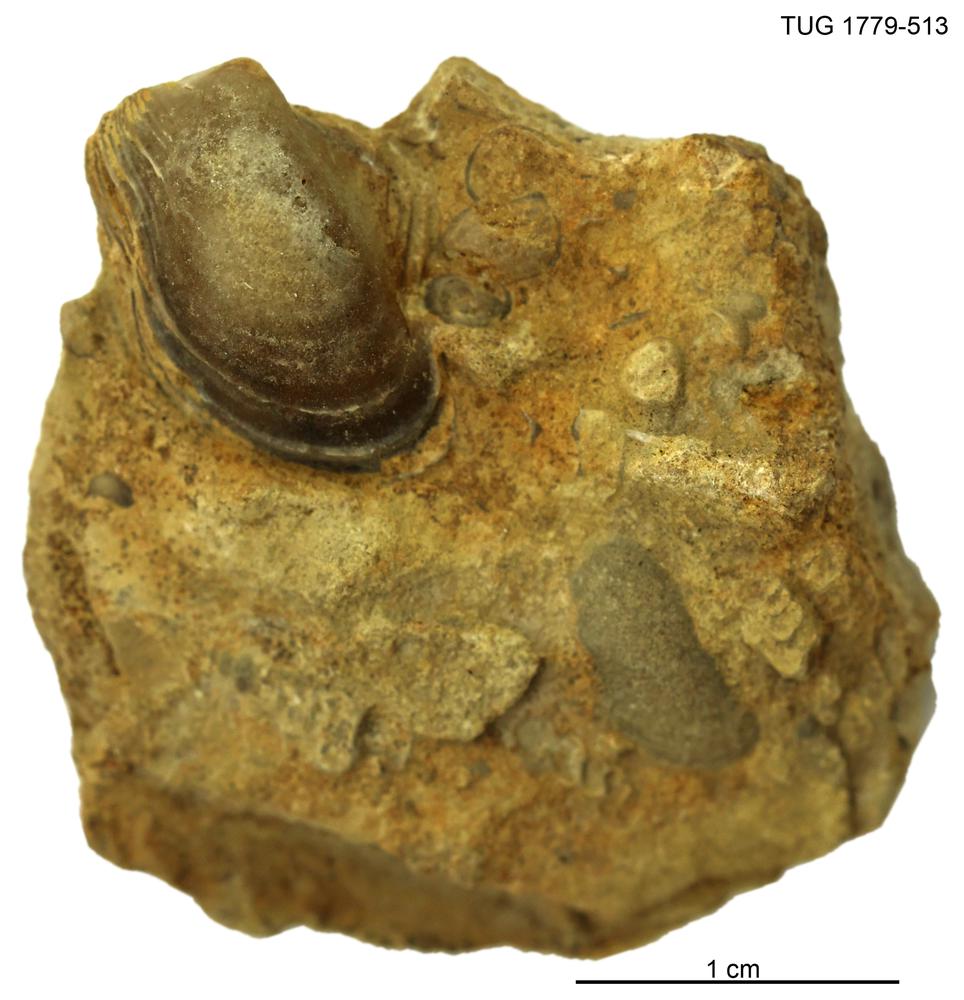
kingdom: Animalia
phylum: Mollusca
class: Bivalvia
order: Ostreida
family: Pterineidae
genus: Pterinea
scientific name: Pterinea
